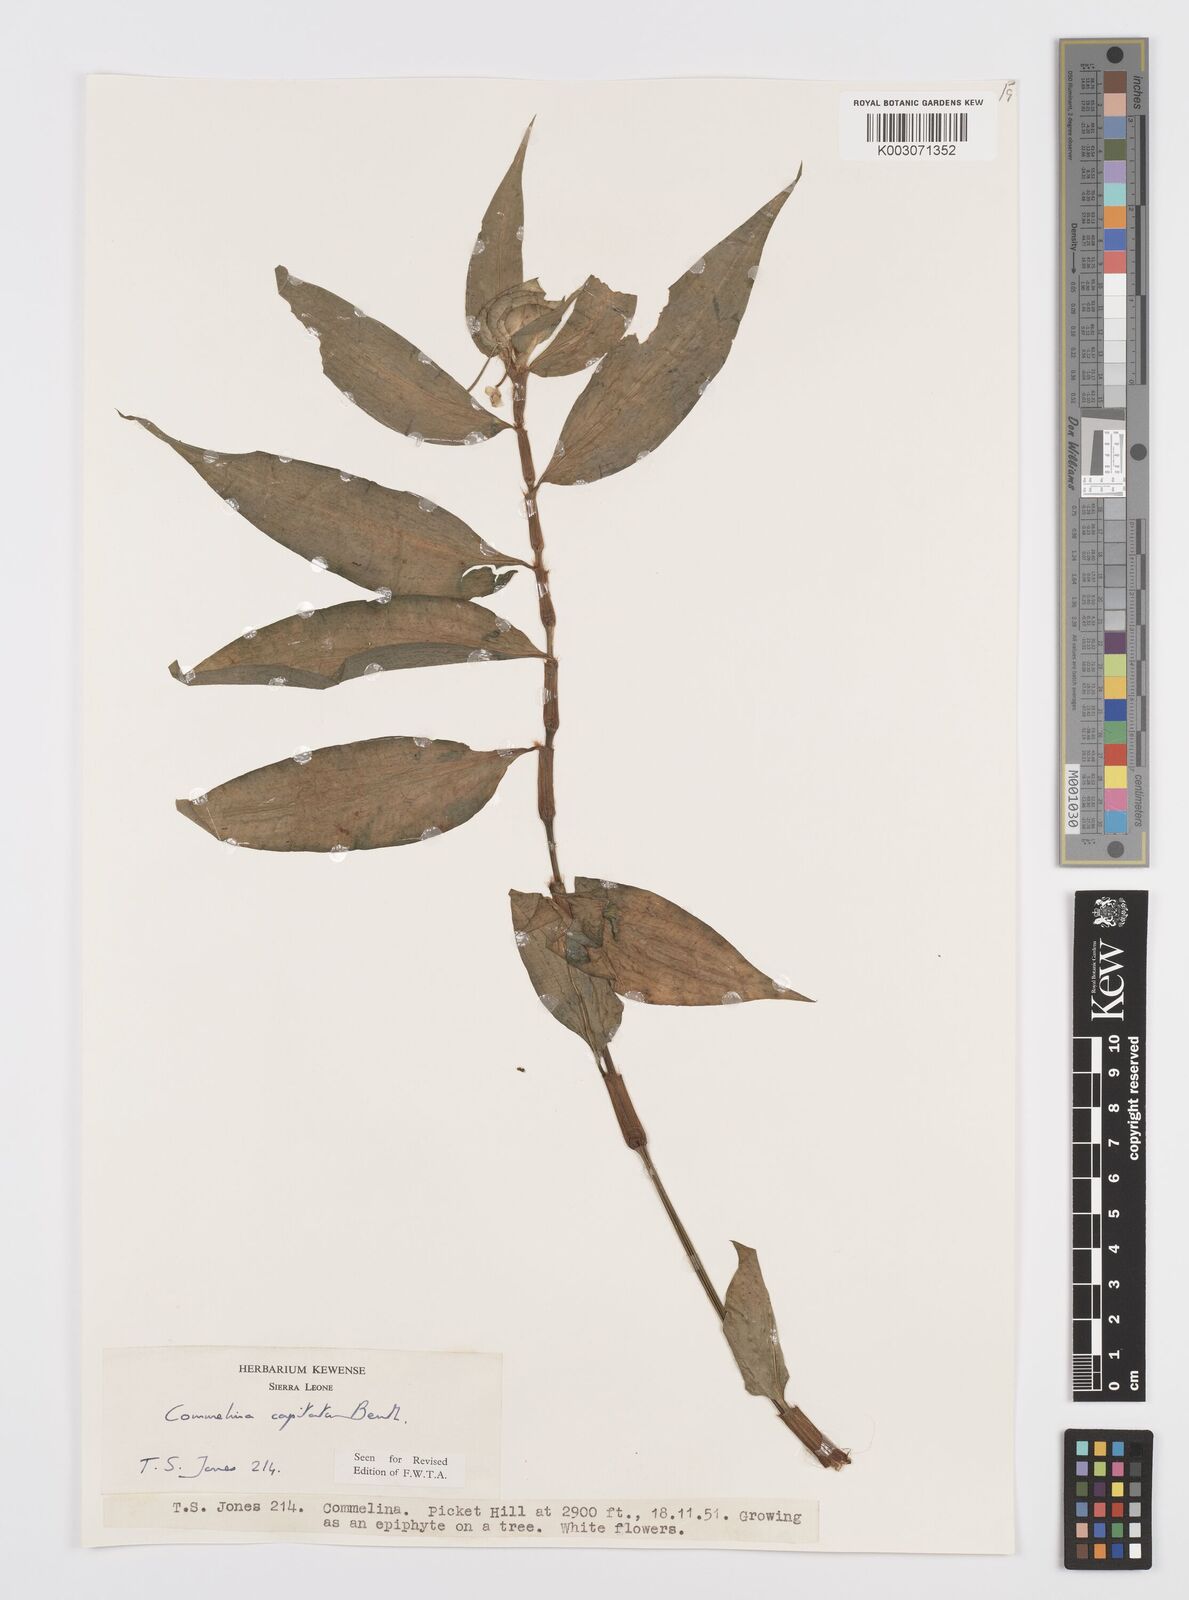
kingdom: Plantae
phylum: Tracheophyta
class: Liliopsida
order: Commelinales
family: Commelinaceae
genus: Commelina
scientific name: Commelina capitata
